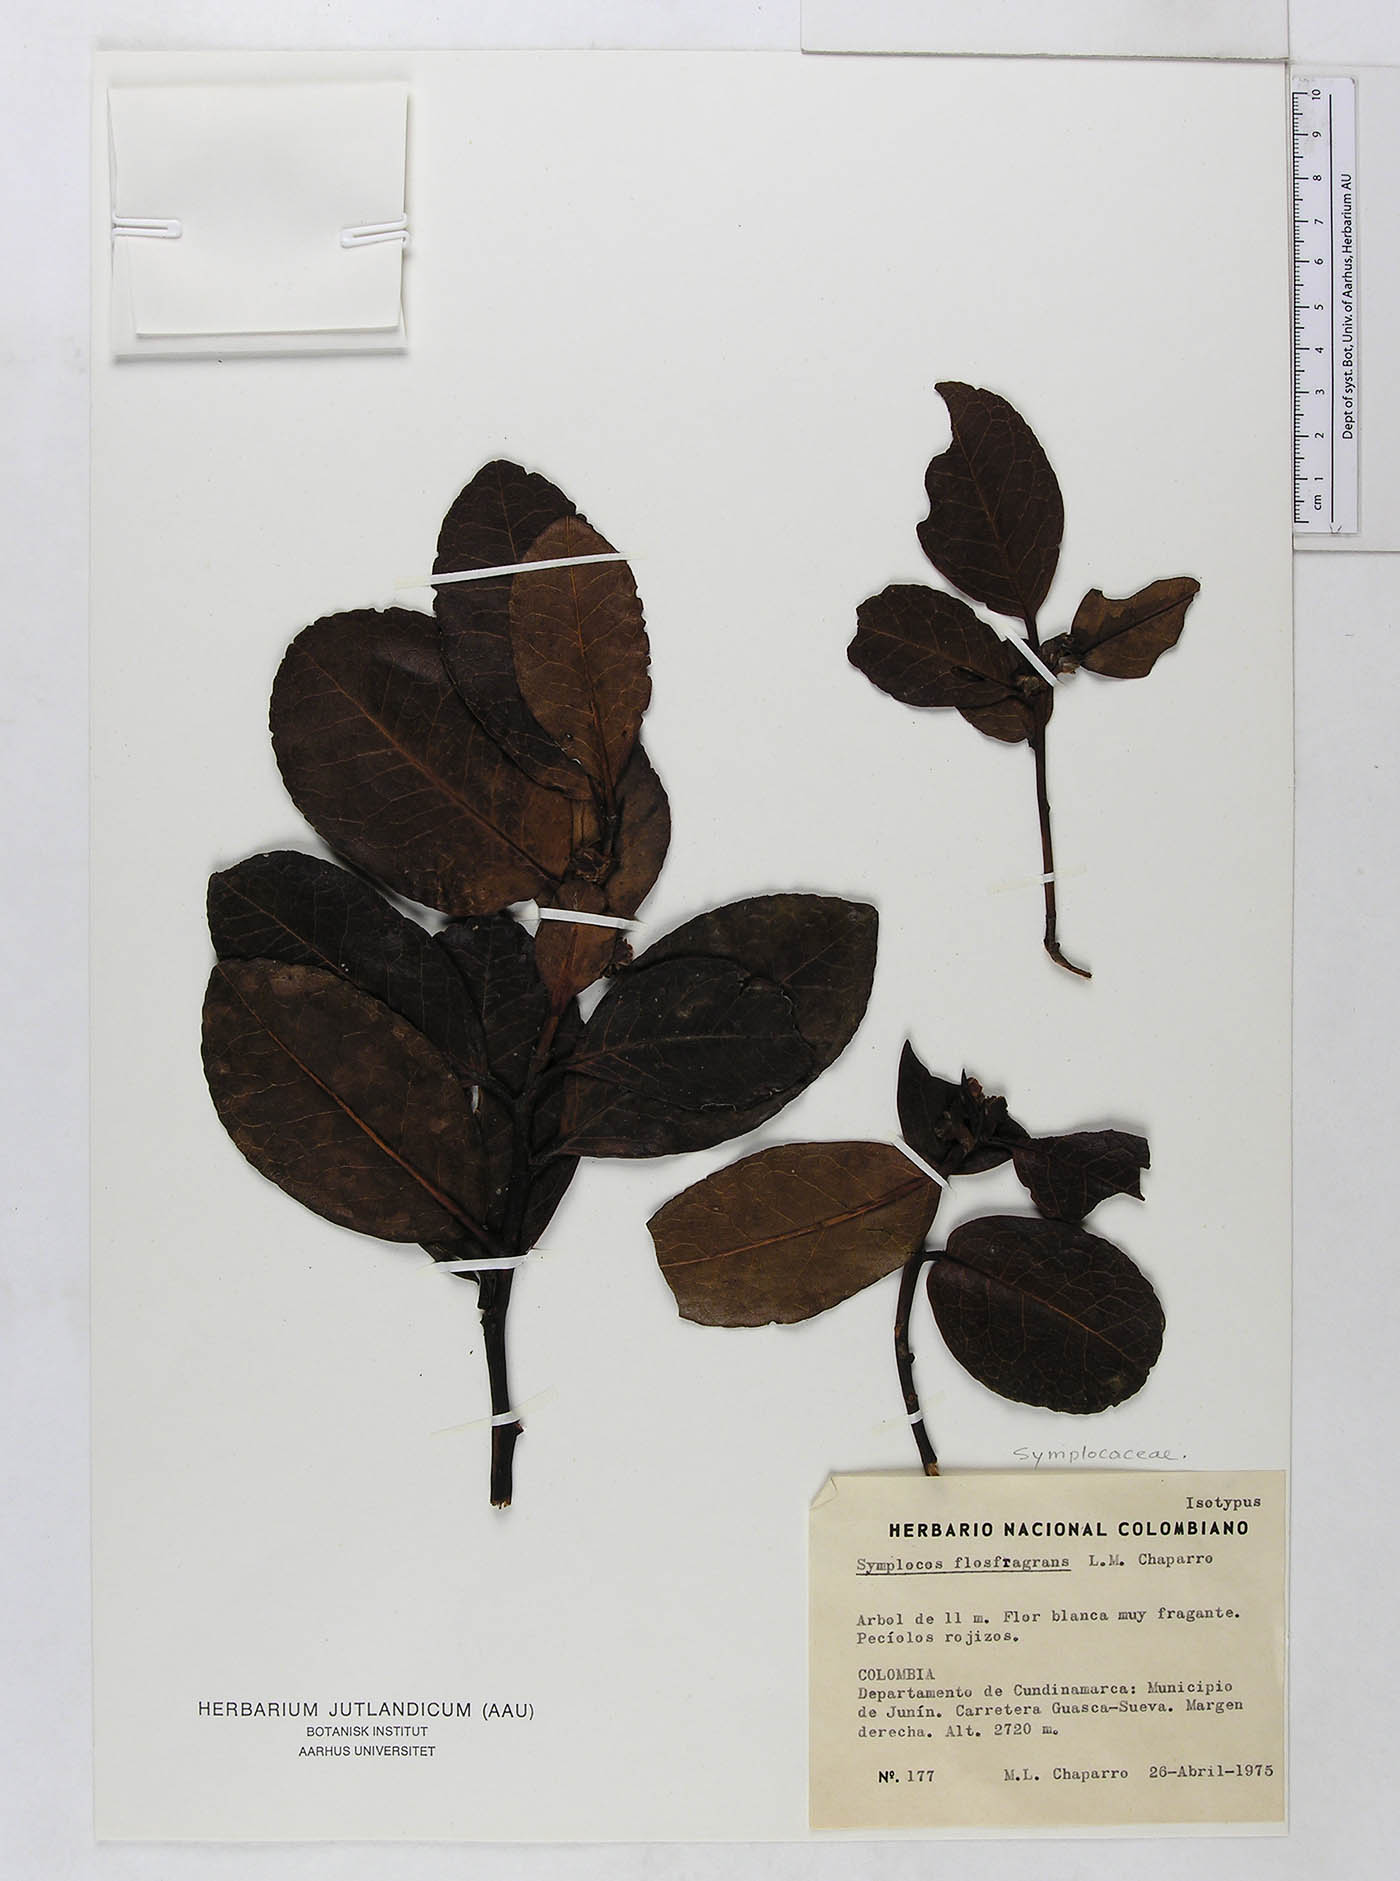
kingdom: Plantae
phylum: Tracheophyta
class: Magnoliopsida
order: Ericales
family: Symplocaceae
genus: Symplocos
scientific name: Symplocos flos-fragrans
